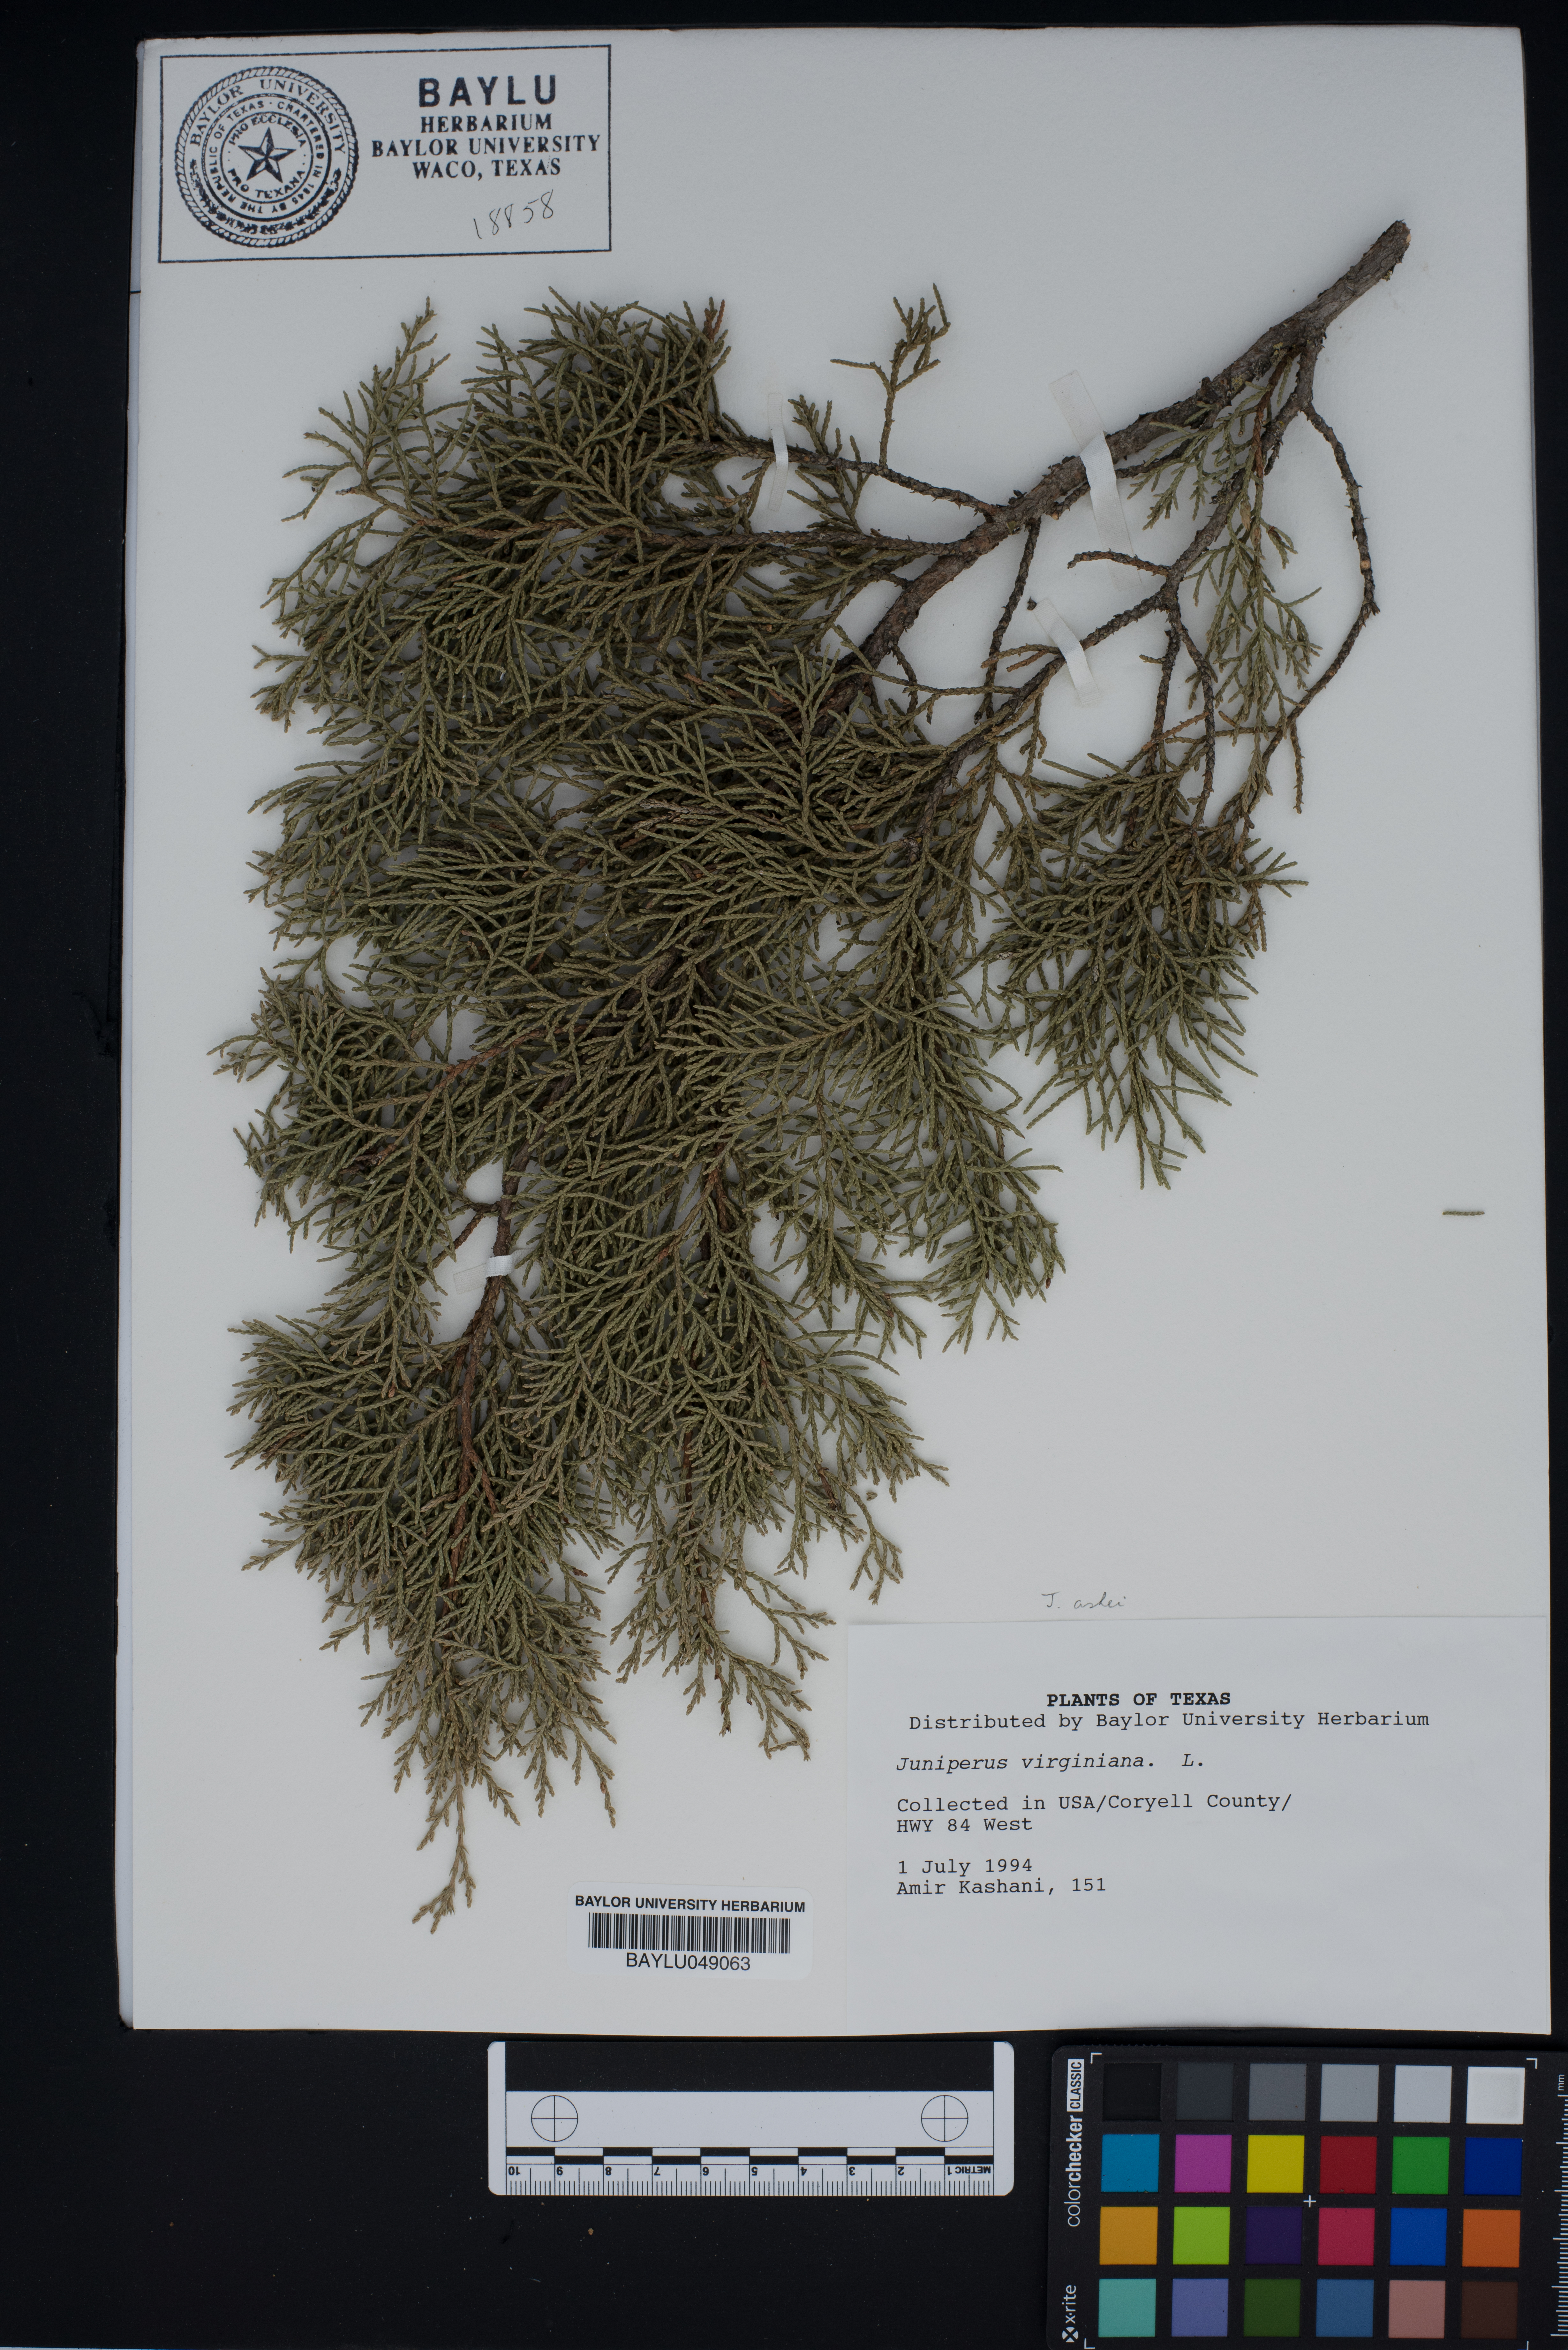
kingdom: Plantae
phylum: Tracheophyta
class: Pinopsida
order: Pinales
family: Cupressaceae
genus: Juniperus
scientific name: Juniperus virginiana
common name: Red juniper
